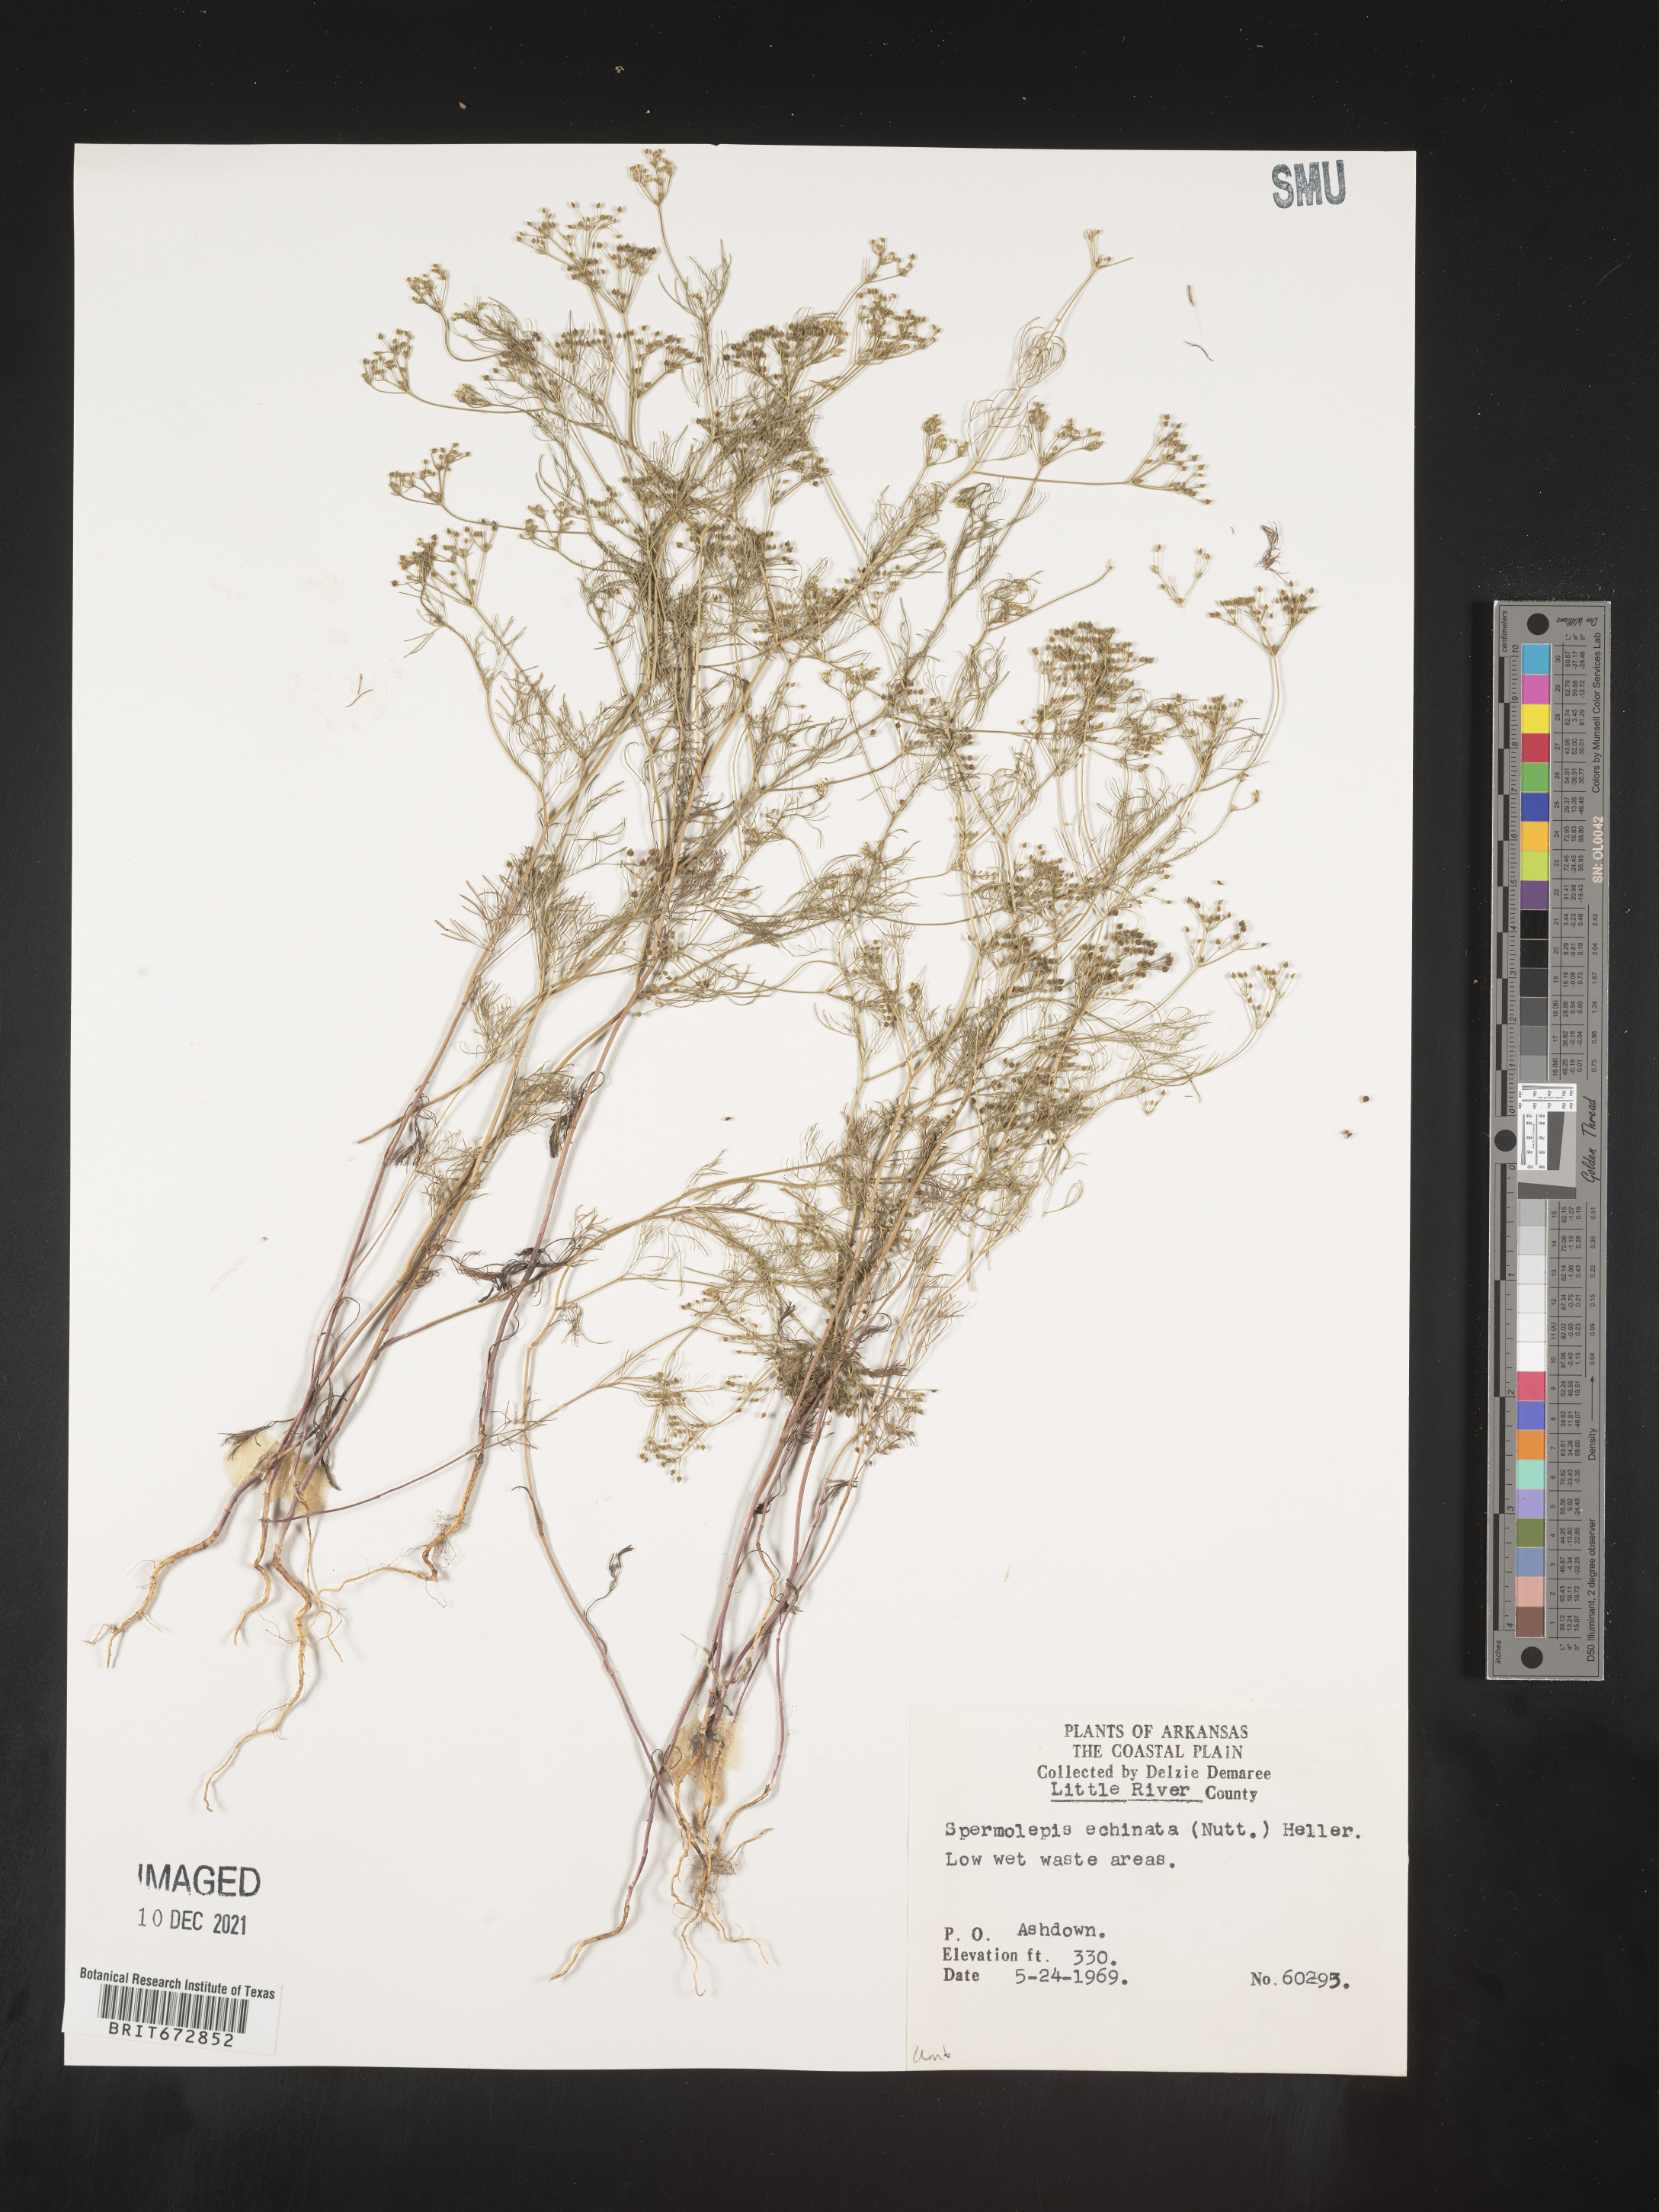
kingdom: Plantae
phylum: Tracheophyta
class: Magnoliopsida
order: Apiales
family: Apiaceae
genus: Spermolepis
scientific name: Spermolepis echinata
